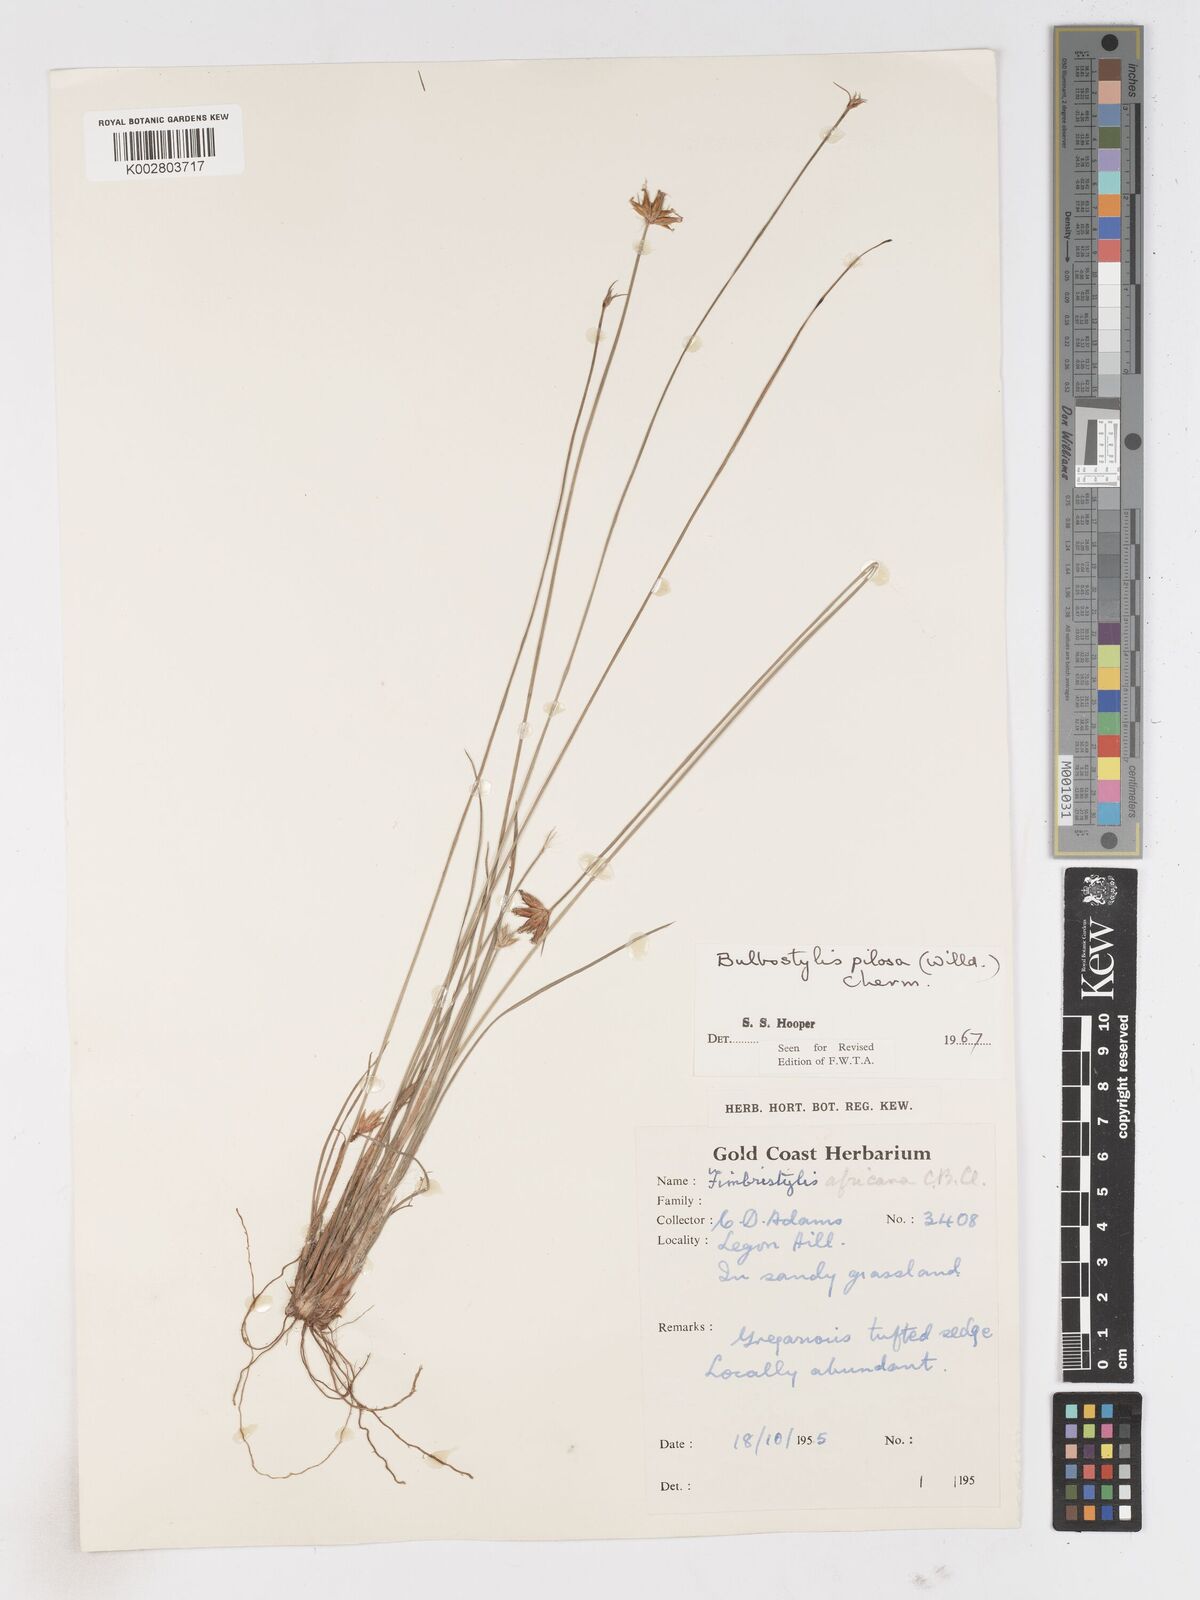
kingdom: Plantae
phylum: Tracheophyta
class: Liliopsida
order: Poales
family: Cyperaceae
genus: Bulbostylis
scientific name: Bulbostylis pilosa
